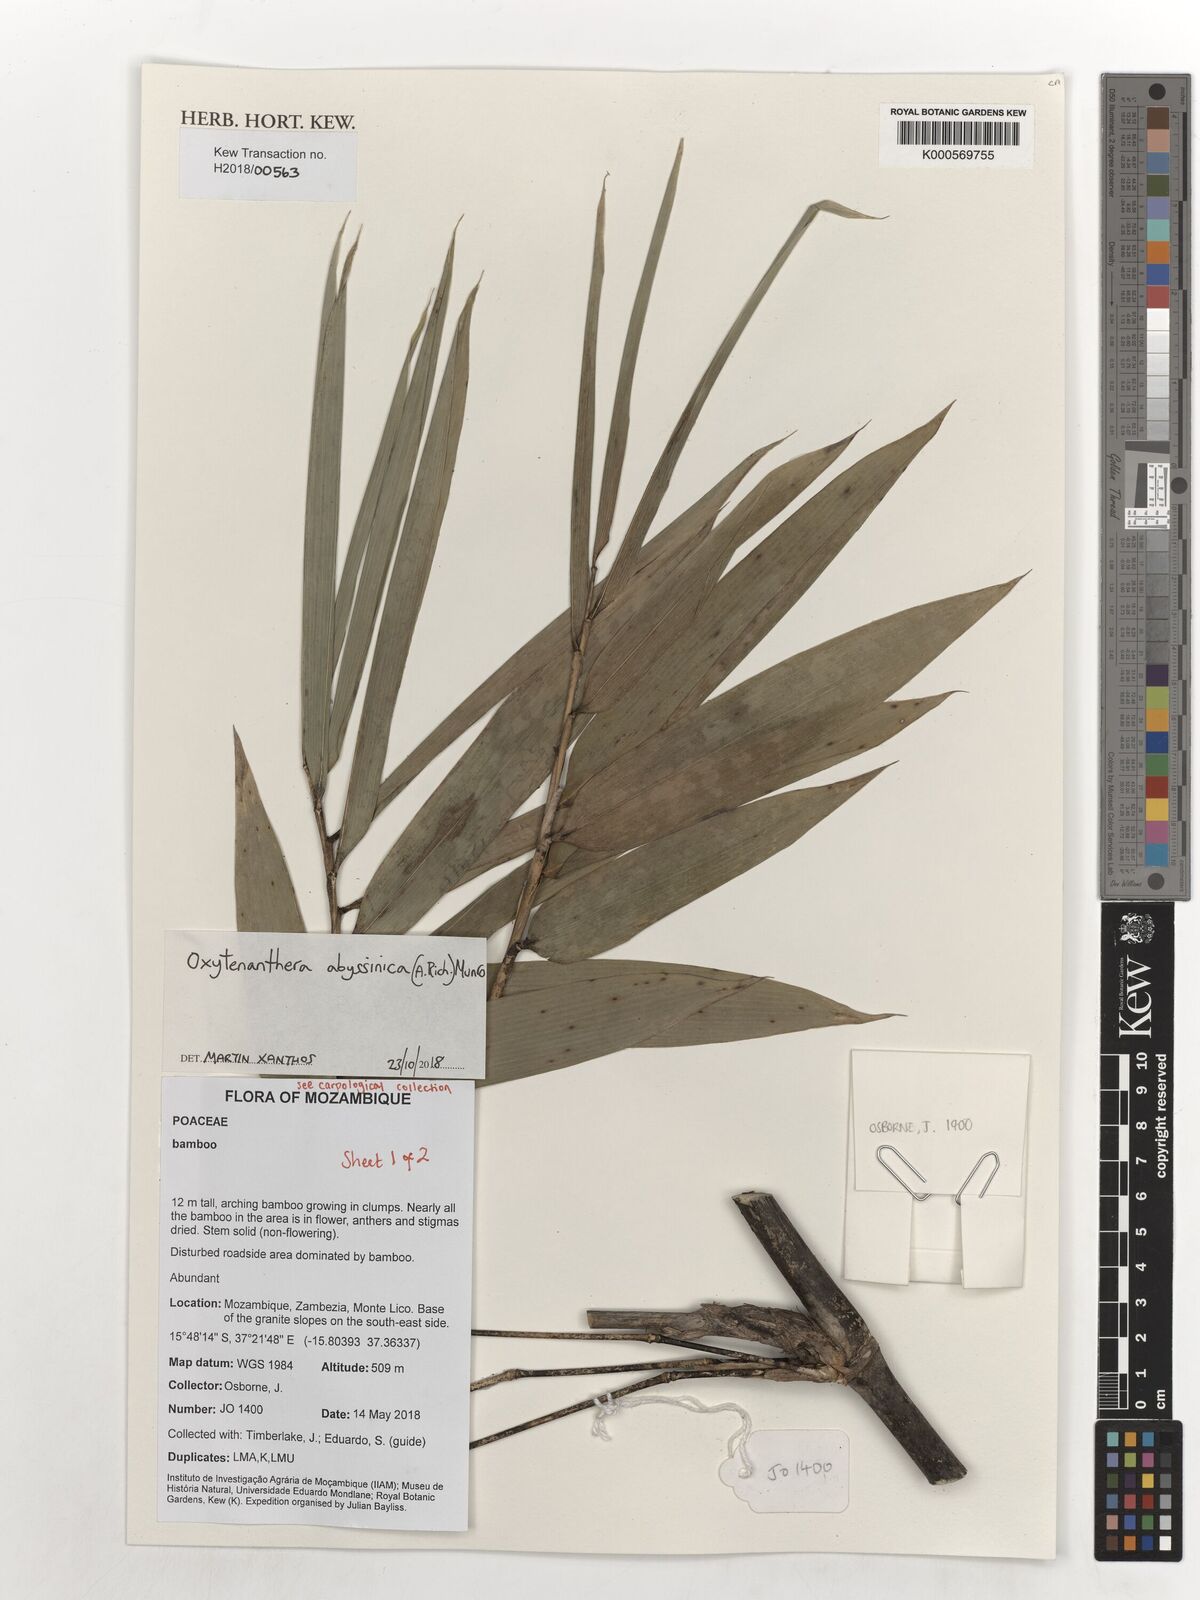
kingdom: Plantae
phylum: Tracheophyta
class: Liliopsida
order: Poales
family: Poaceae
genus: Oxytenanthera
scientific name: Oxytenanthera abyssinica
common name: Wine bamboo
